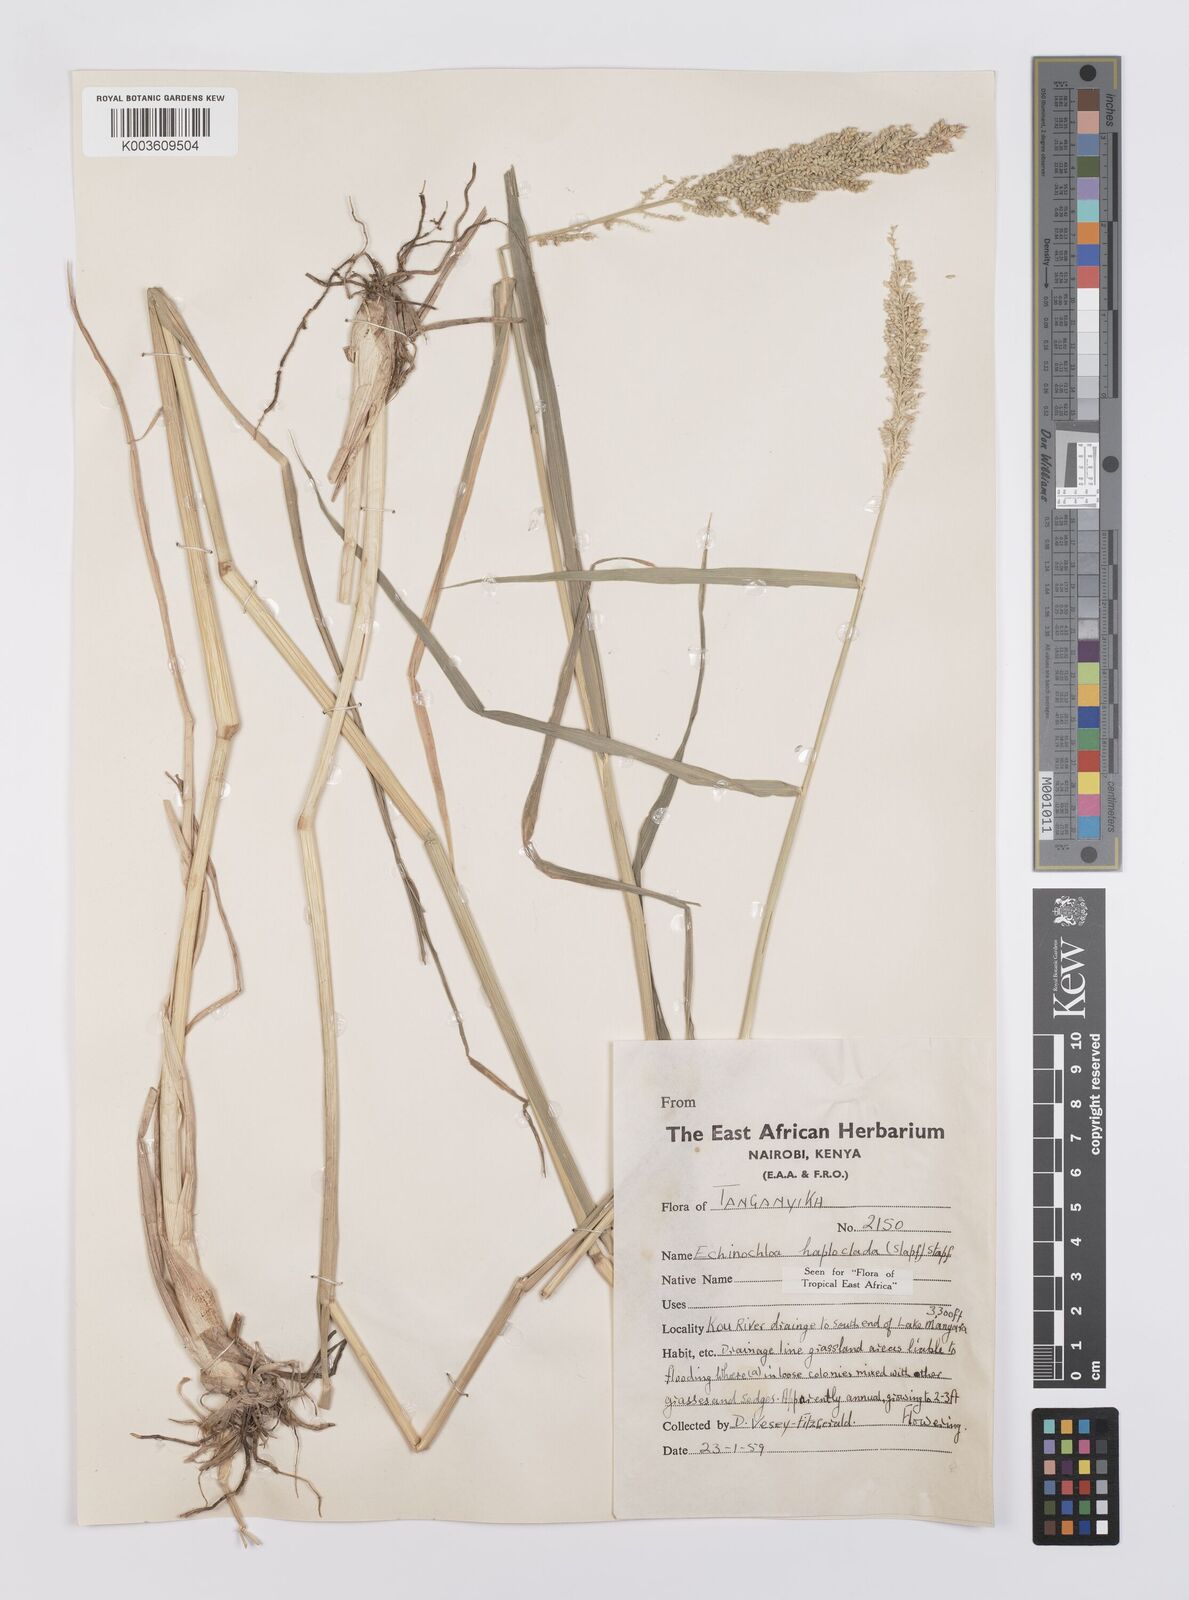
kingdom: Plantae
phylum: Tracheophyta
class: Liliopsida
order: Poales
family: Poaceae
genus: Echinochloa
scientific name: Echinochloa haploclada
